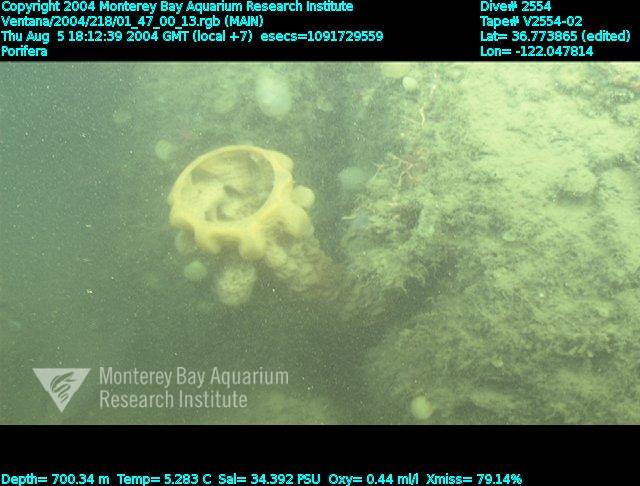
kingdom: Animalia
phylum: Porifera
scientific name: Porifera
